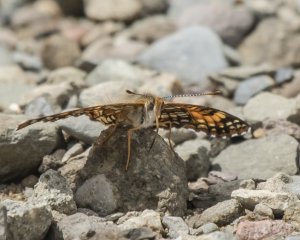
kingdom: Animalia
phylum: Arthropoda
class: Insecta
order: Lepidoptera
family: Nymphalidae
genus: Chlosyne
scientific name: Chlosyne harrisii
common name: Harris's Checkerspot
